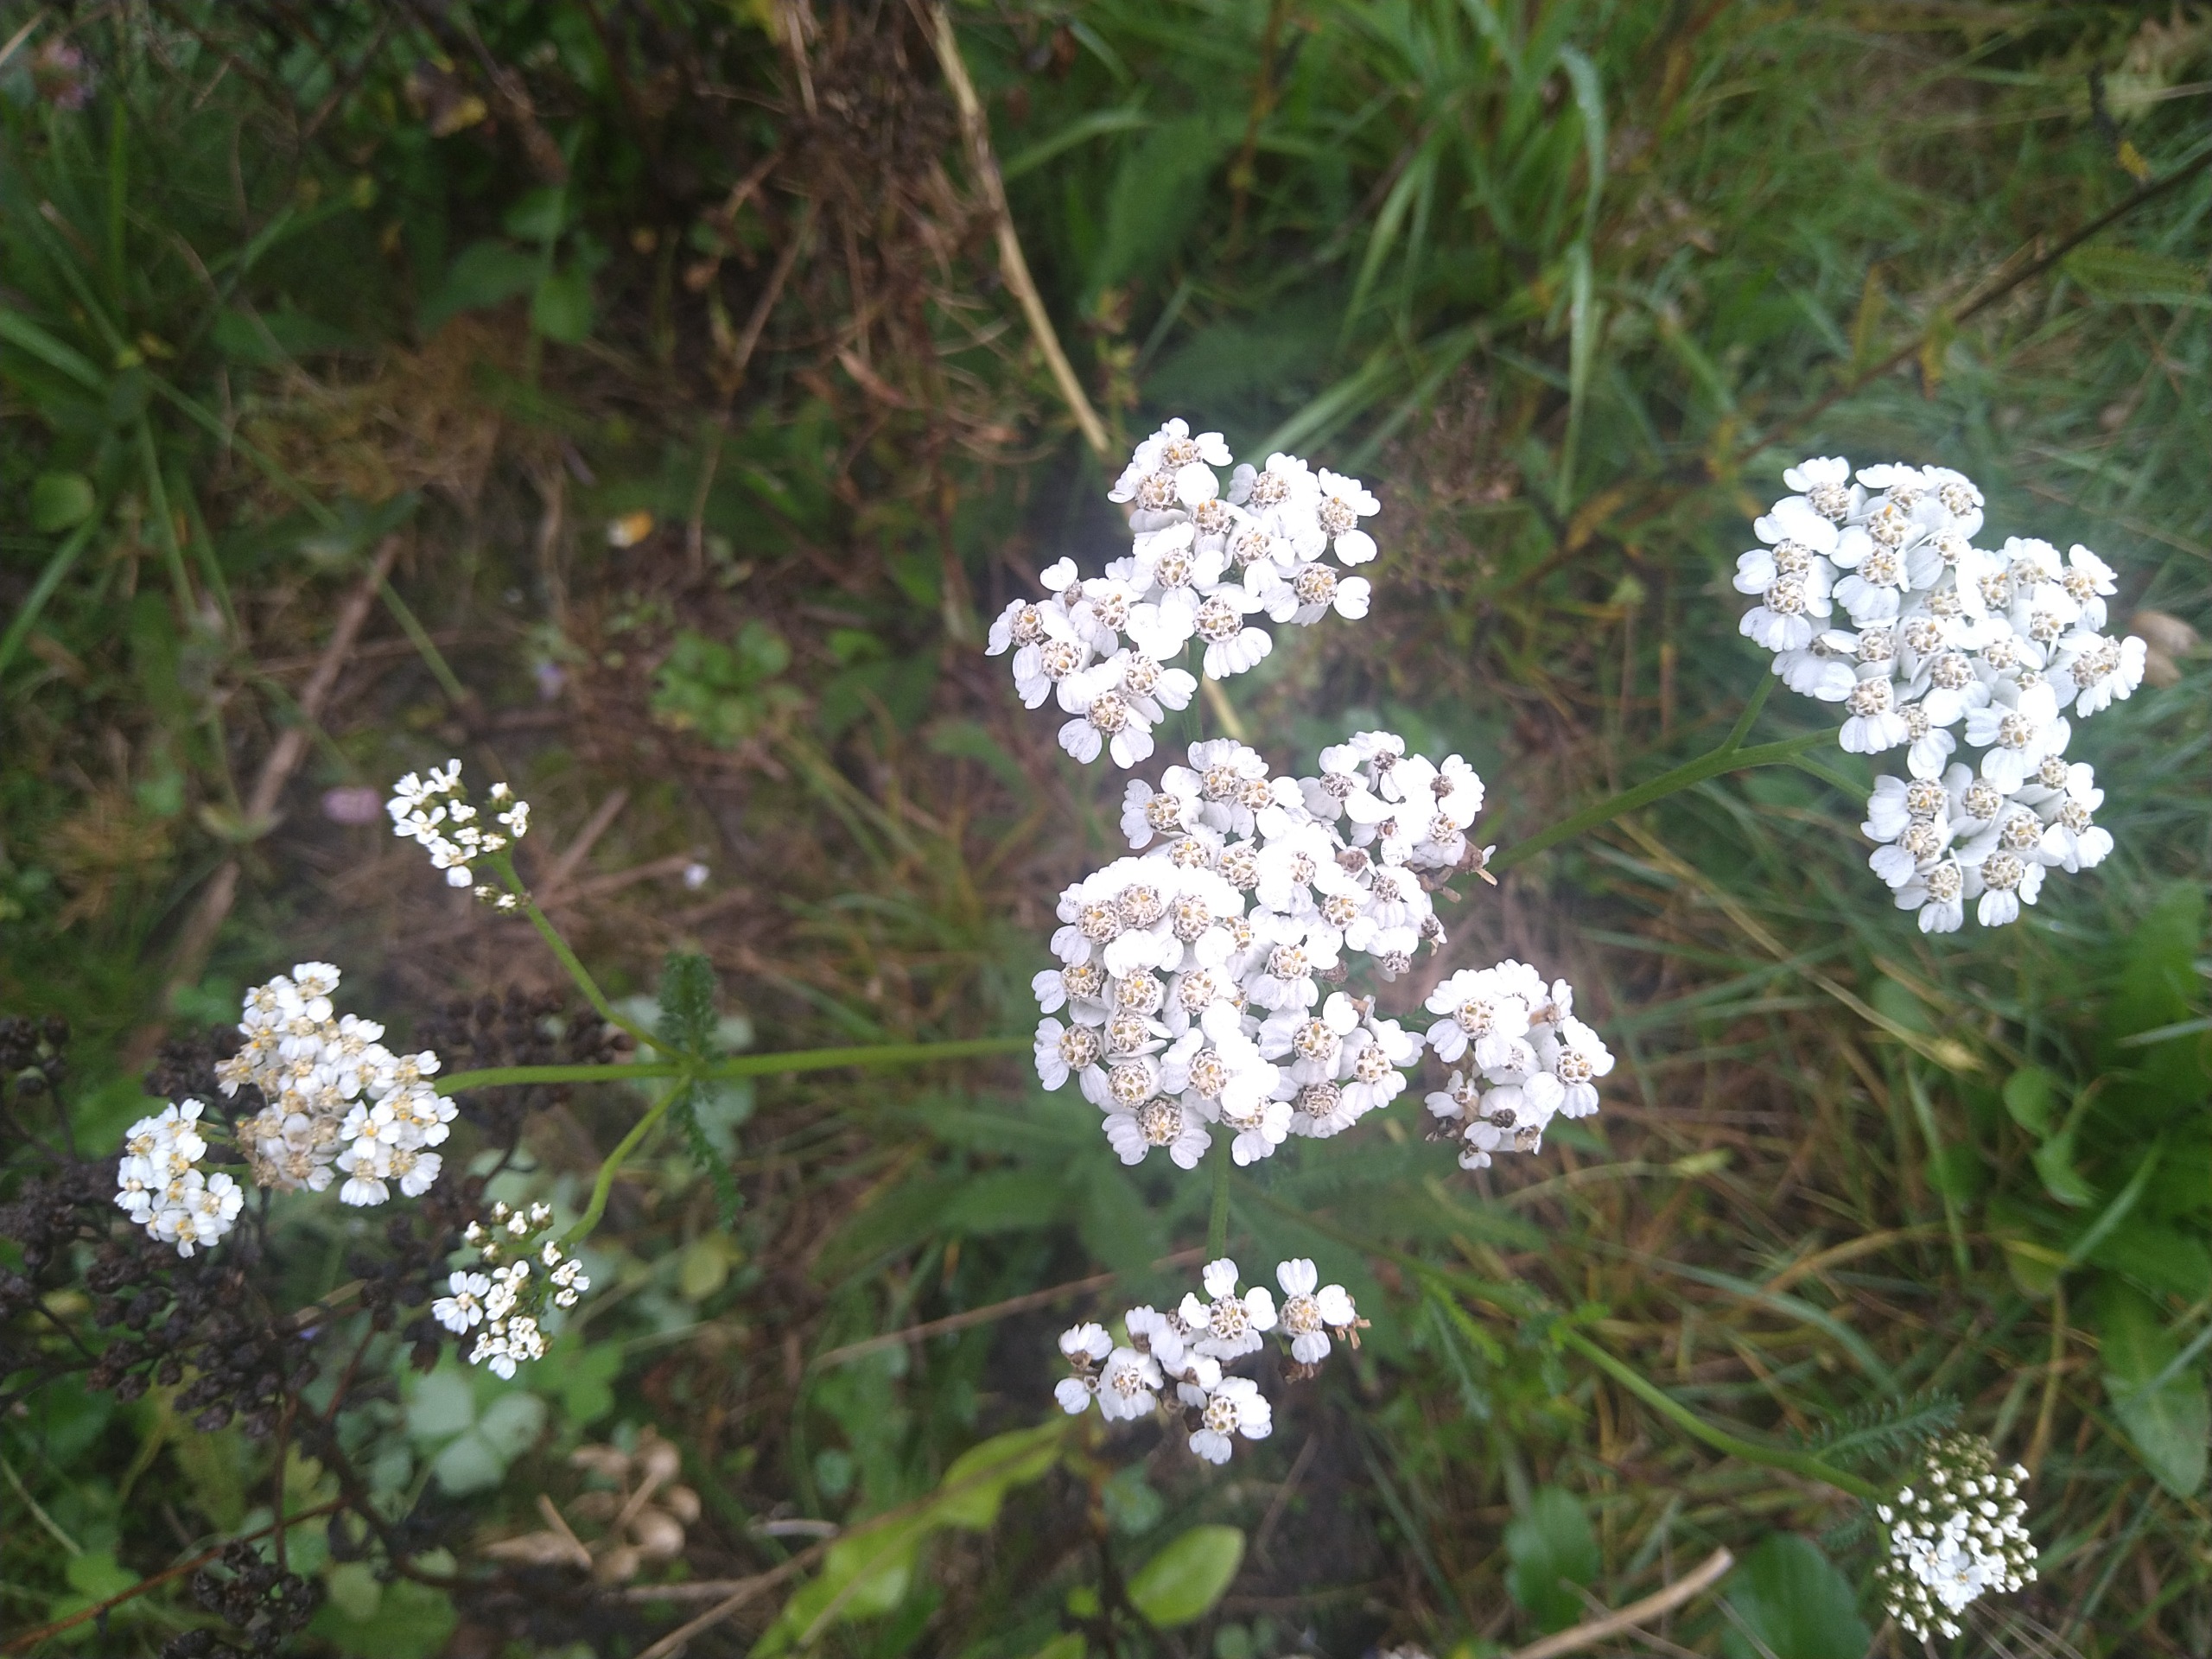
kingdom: Plantae
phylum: Tracheophyta
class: Magnoliopsida
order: Asterales
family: Asteraceae
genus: Achillea
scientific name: Achillea millefolium
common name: Almindelig røllike
